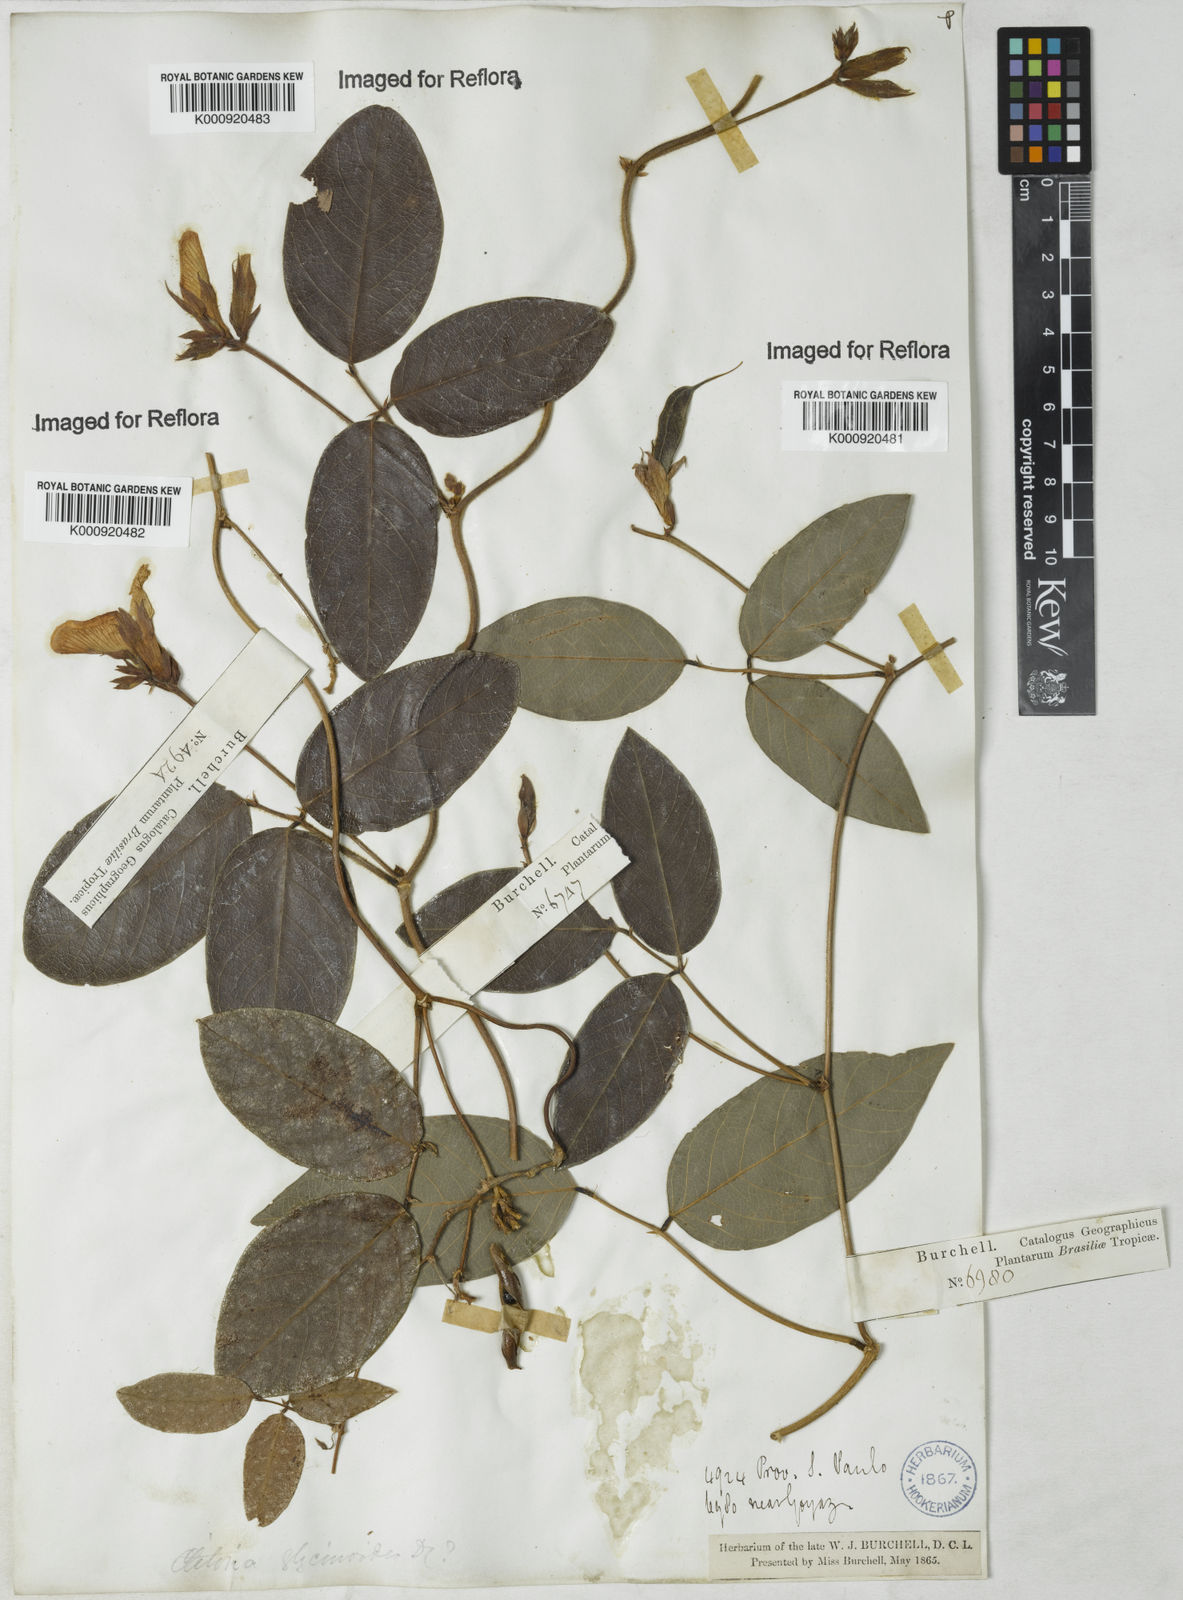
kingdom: Plantae
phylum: Tracheophyta
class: Magnoliopsida
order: Fabales
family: Fabaceae
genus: Clitoria
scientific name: Clitoria
